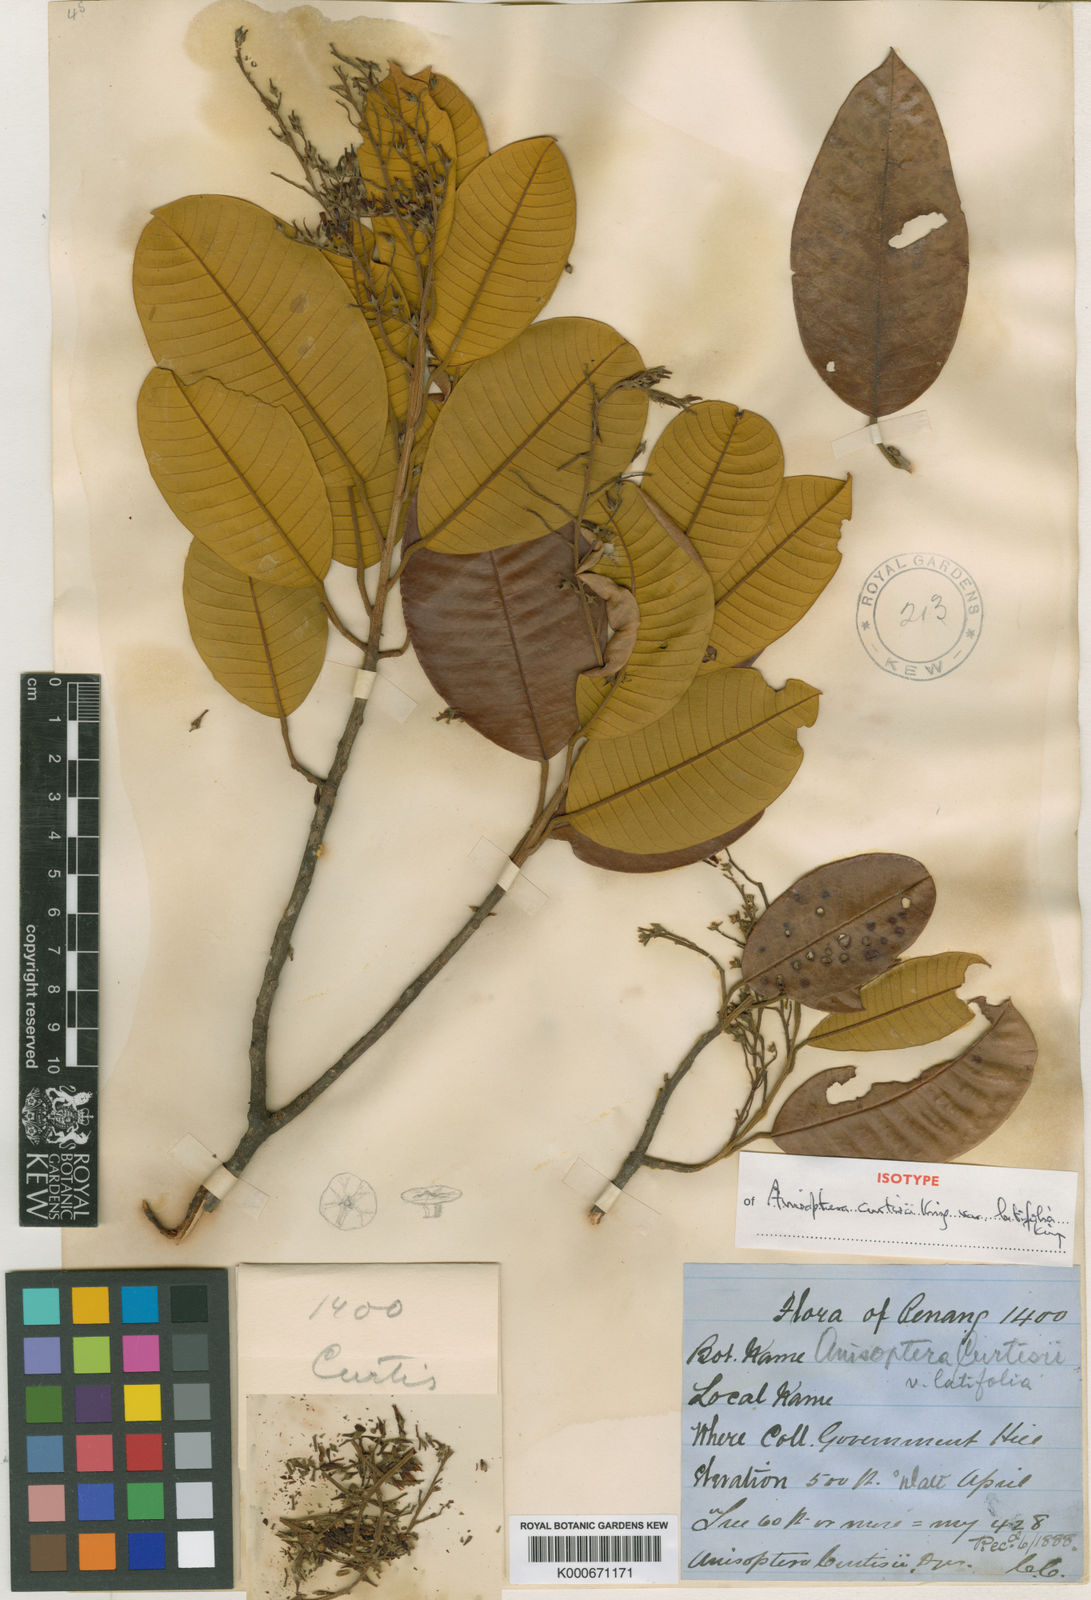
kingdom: Plantae
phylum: Tracheophyta
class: Magnoliopsida
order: Malvales
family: Dipterocarpaceae
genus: Anisoptera
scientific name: Anisoptera curtisii
